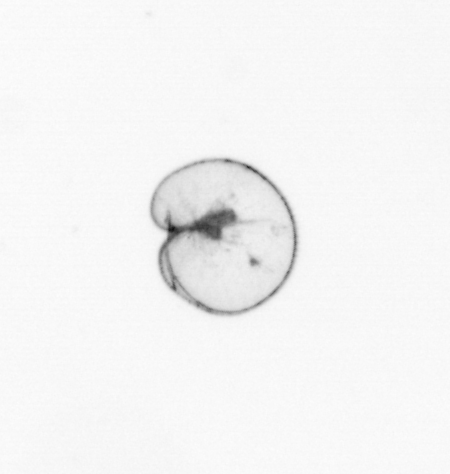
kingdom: Chromista
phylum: Myzozoa
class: Dinophyceae
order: Noctilucales
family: Noctilucaceae
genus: Noctiluca
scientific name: Noctiluca scintillans
